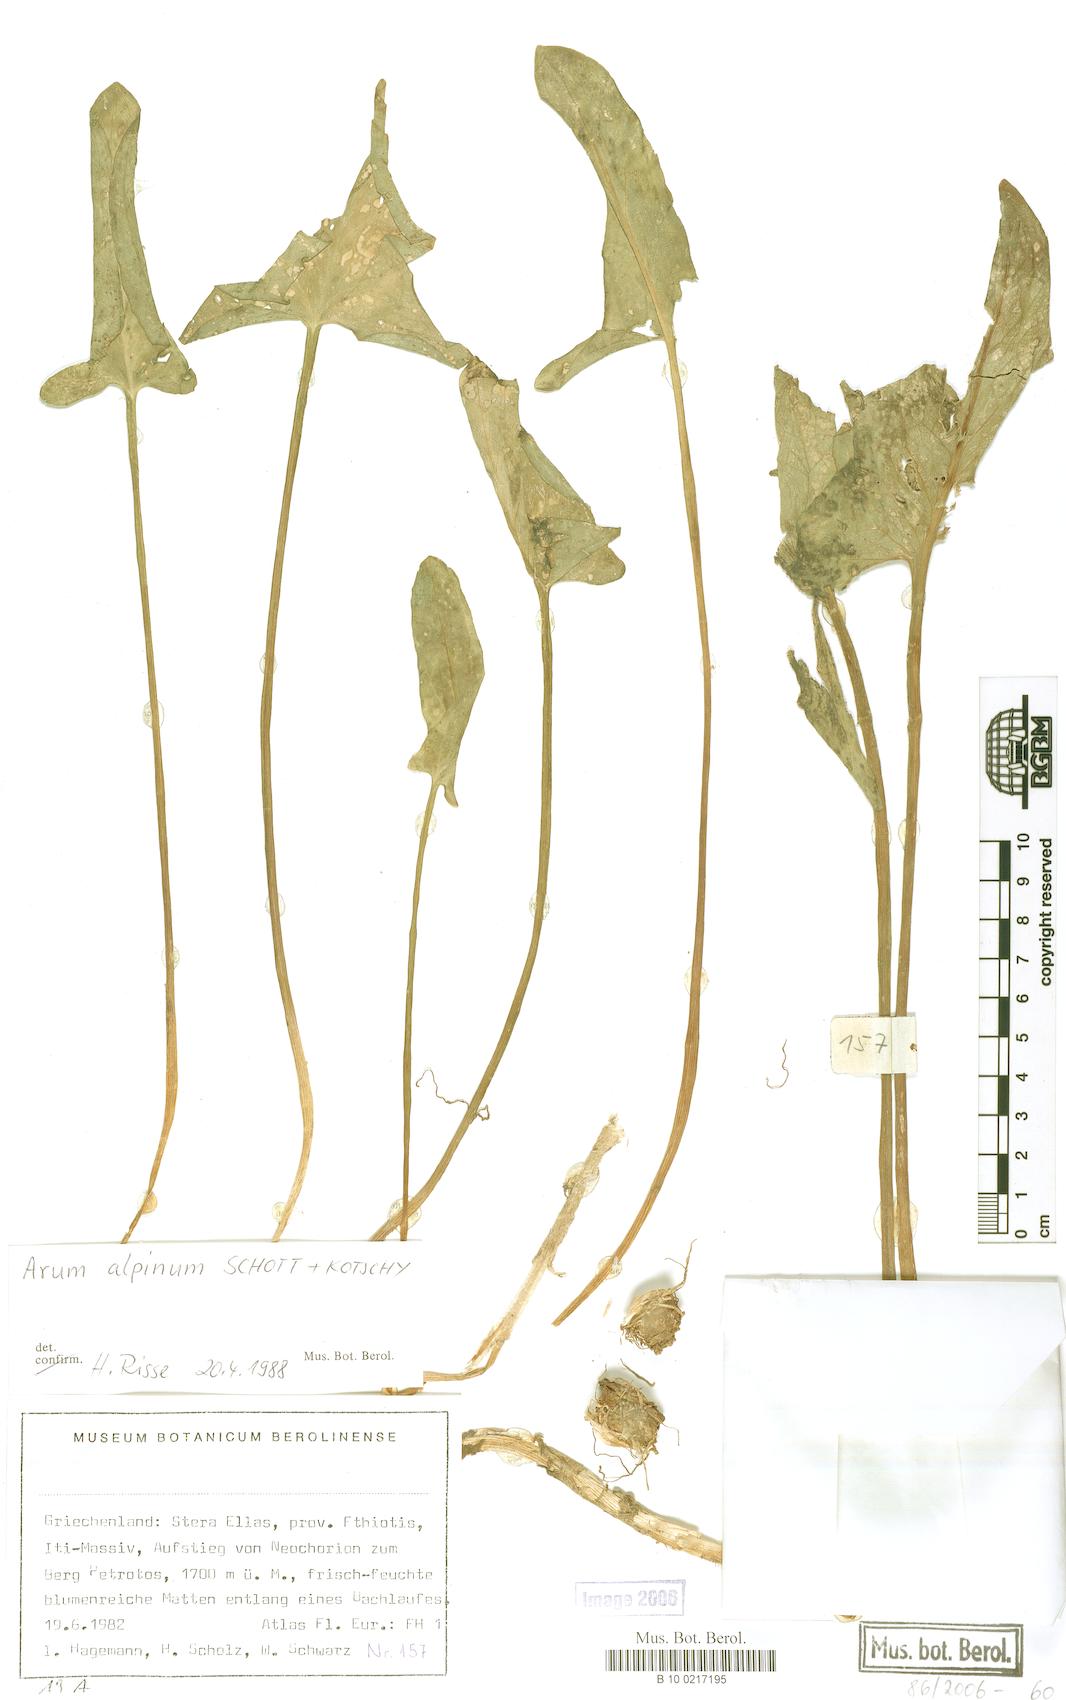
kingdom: Plantae
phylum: Tracheophyta
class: Liliopsida
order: Alismatales
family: Araceae
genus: Arum
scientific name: Arum cylindraceum
